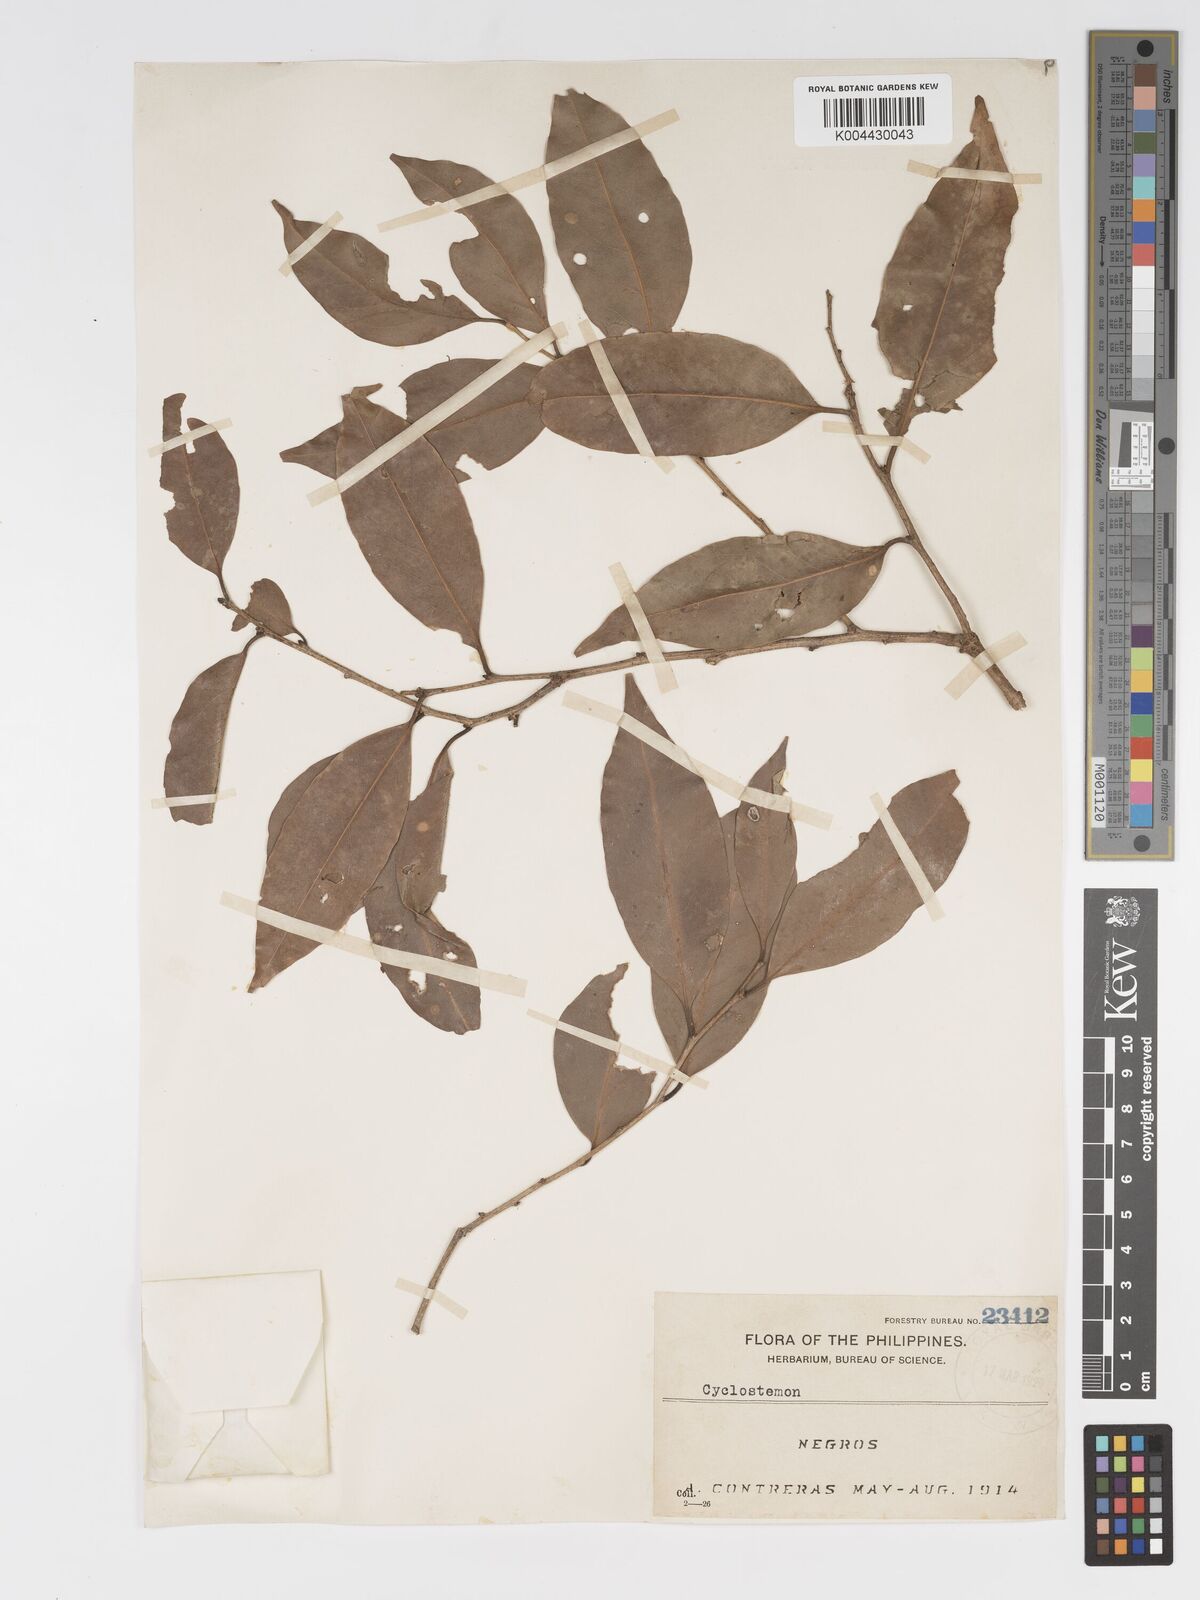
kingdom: Plantae
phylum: Tracheophyta
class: Magnoliopsida
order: Malpighiales
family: Putranjivaceae
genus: Drypetes
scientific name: Drypetes ovalis
